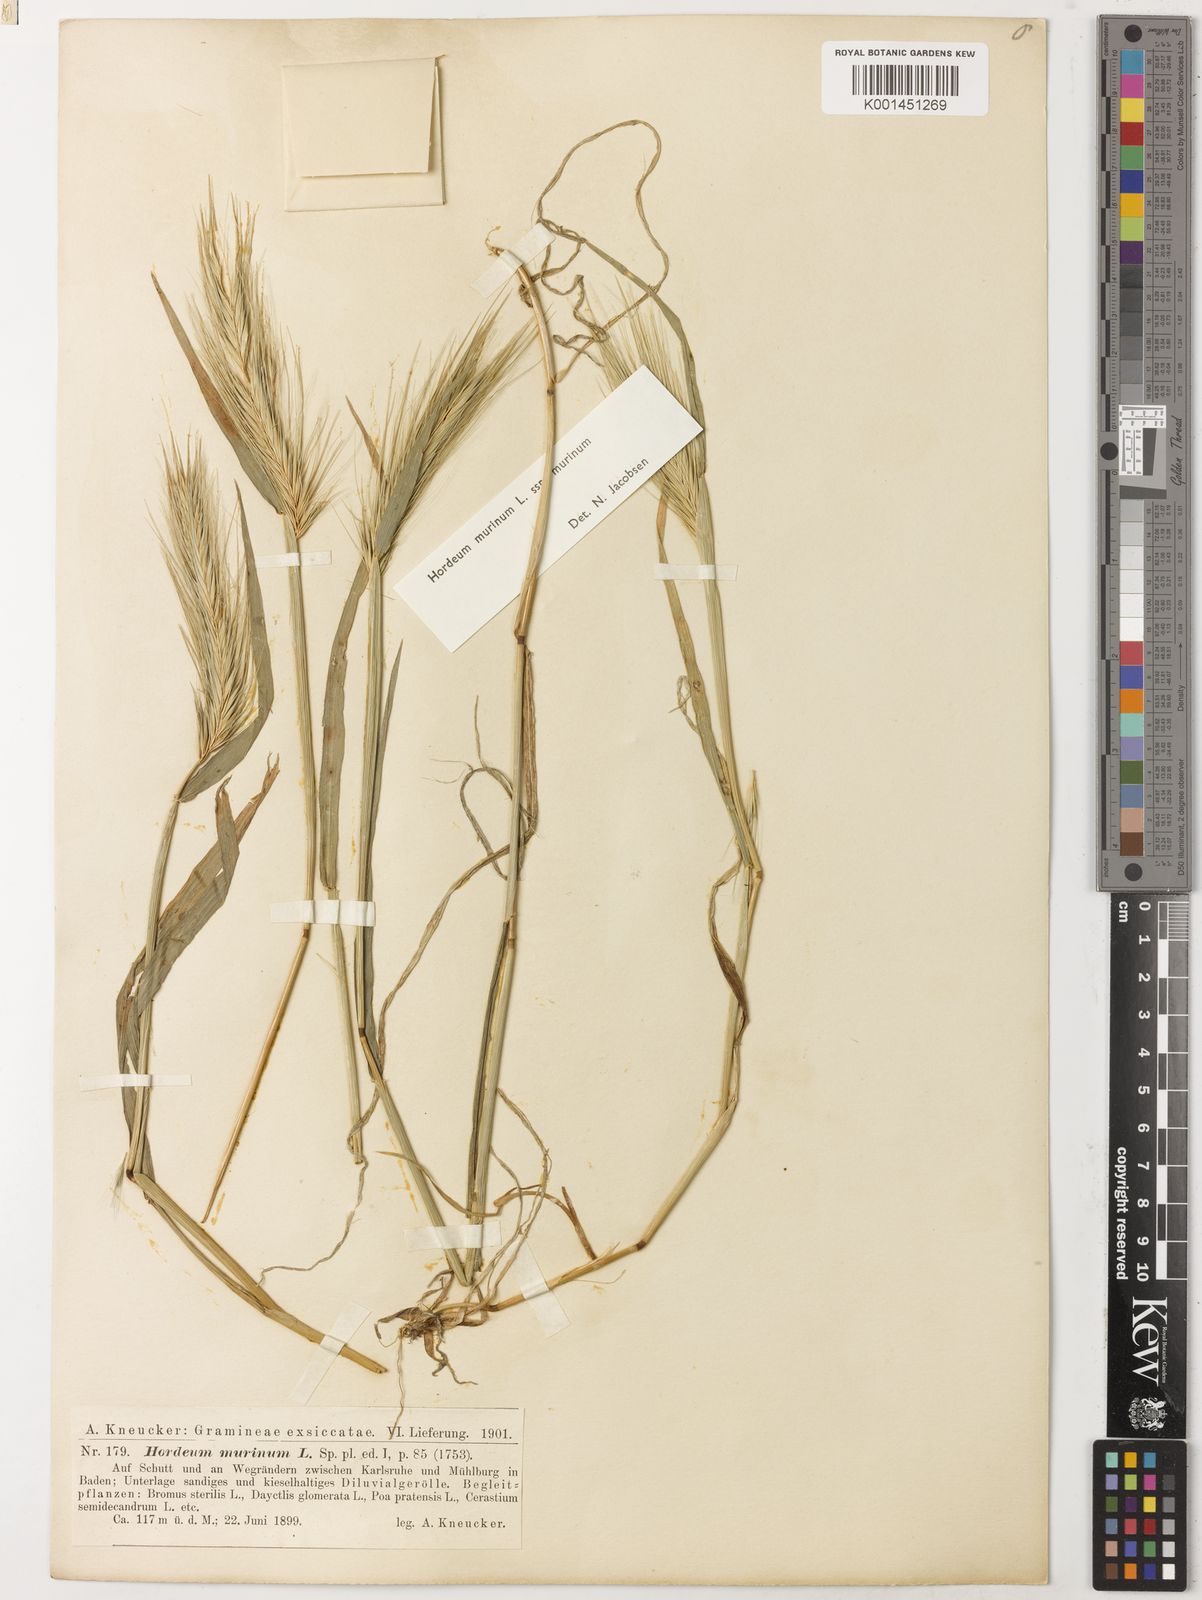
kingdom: Plantae
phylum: Tracheophyta
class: Liliopsida
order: Poales
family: Poaceae
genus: Hordeum
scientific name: Hordeum murinum
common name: Wall barley
